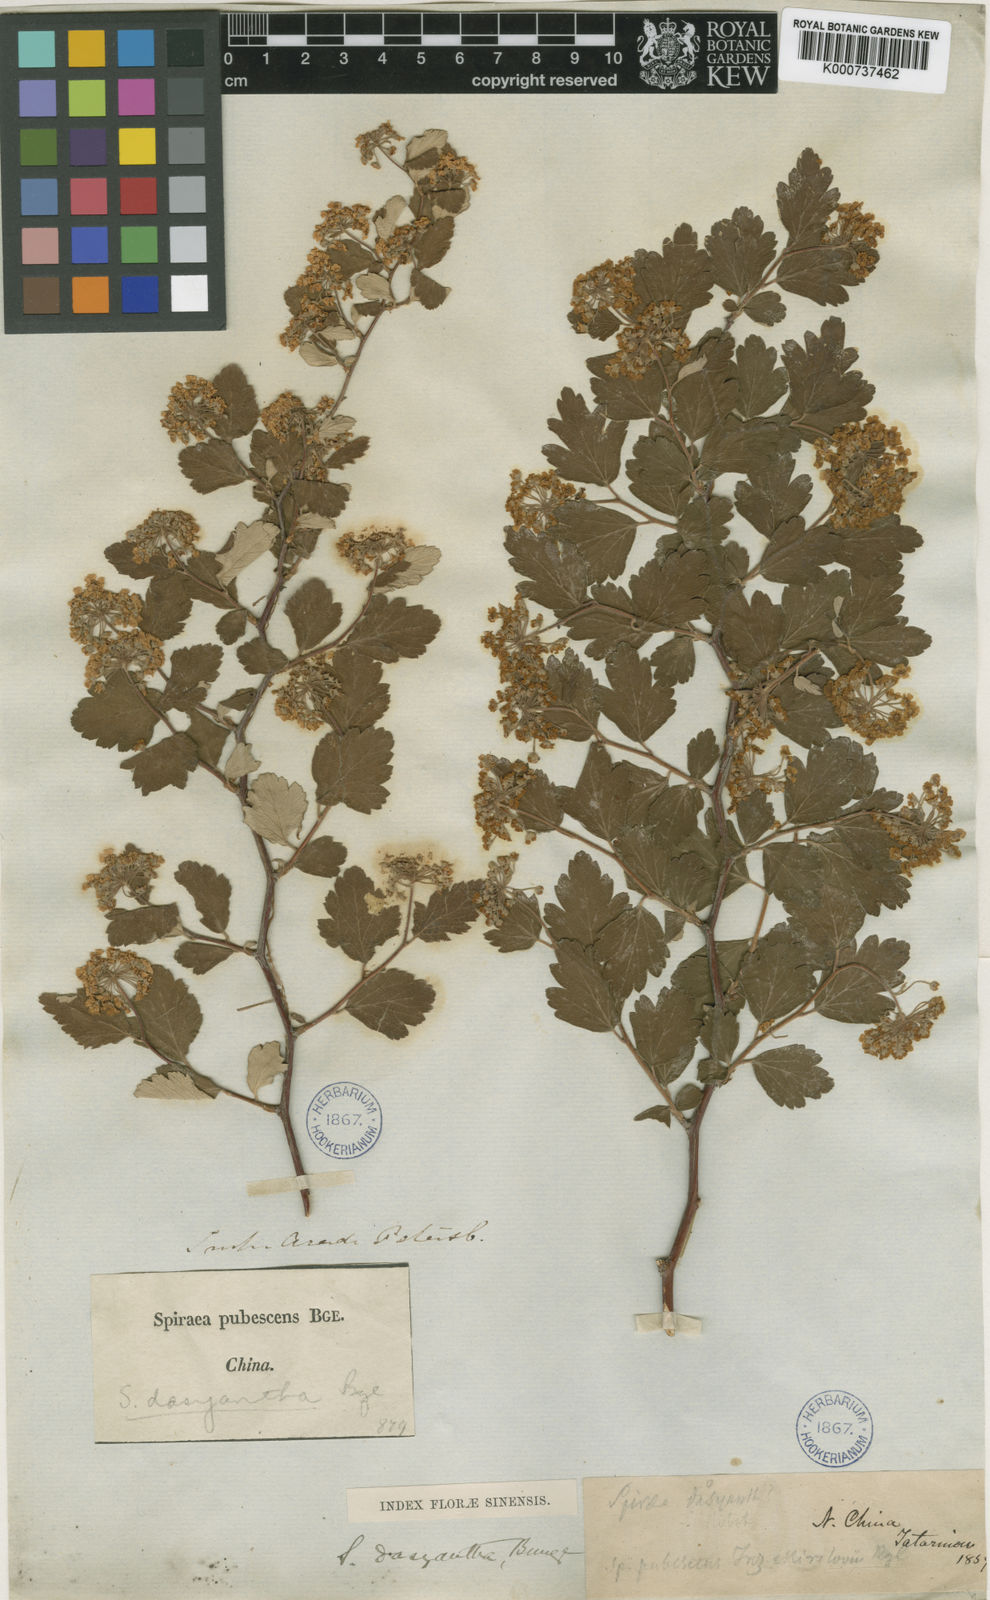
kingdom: Plantae
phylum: Tracheophyta
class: Magnoliopsida
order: Rosales
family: Rosaceae
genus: Spiraea
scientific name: Spiraea dasyantha
